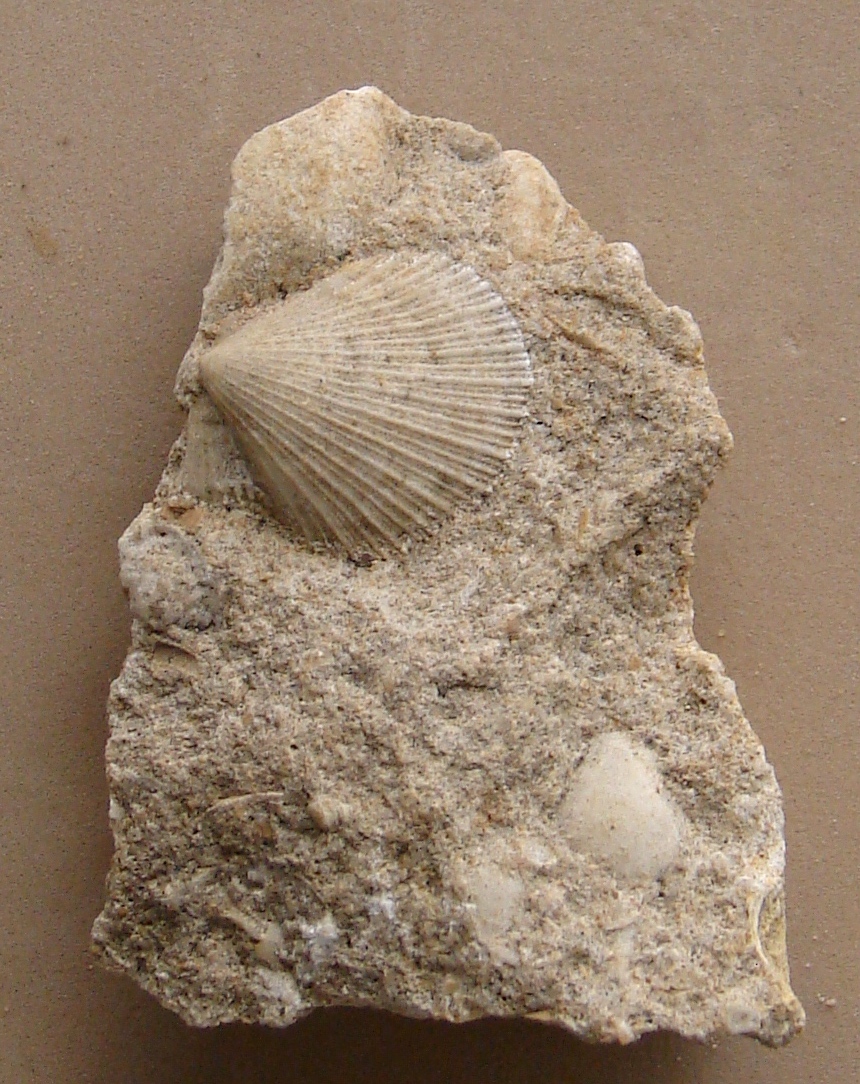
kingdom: Animalia
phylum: Mollusca
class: Bivalvia
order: Pectinida
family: Pectinidae
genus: Lyriochlamys
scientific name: Lyriochlamys
